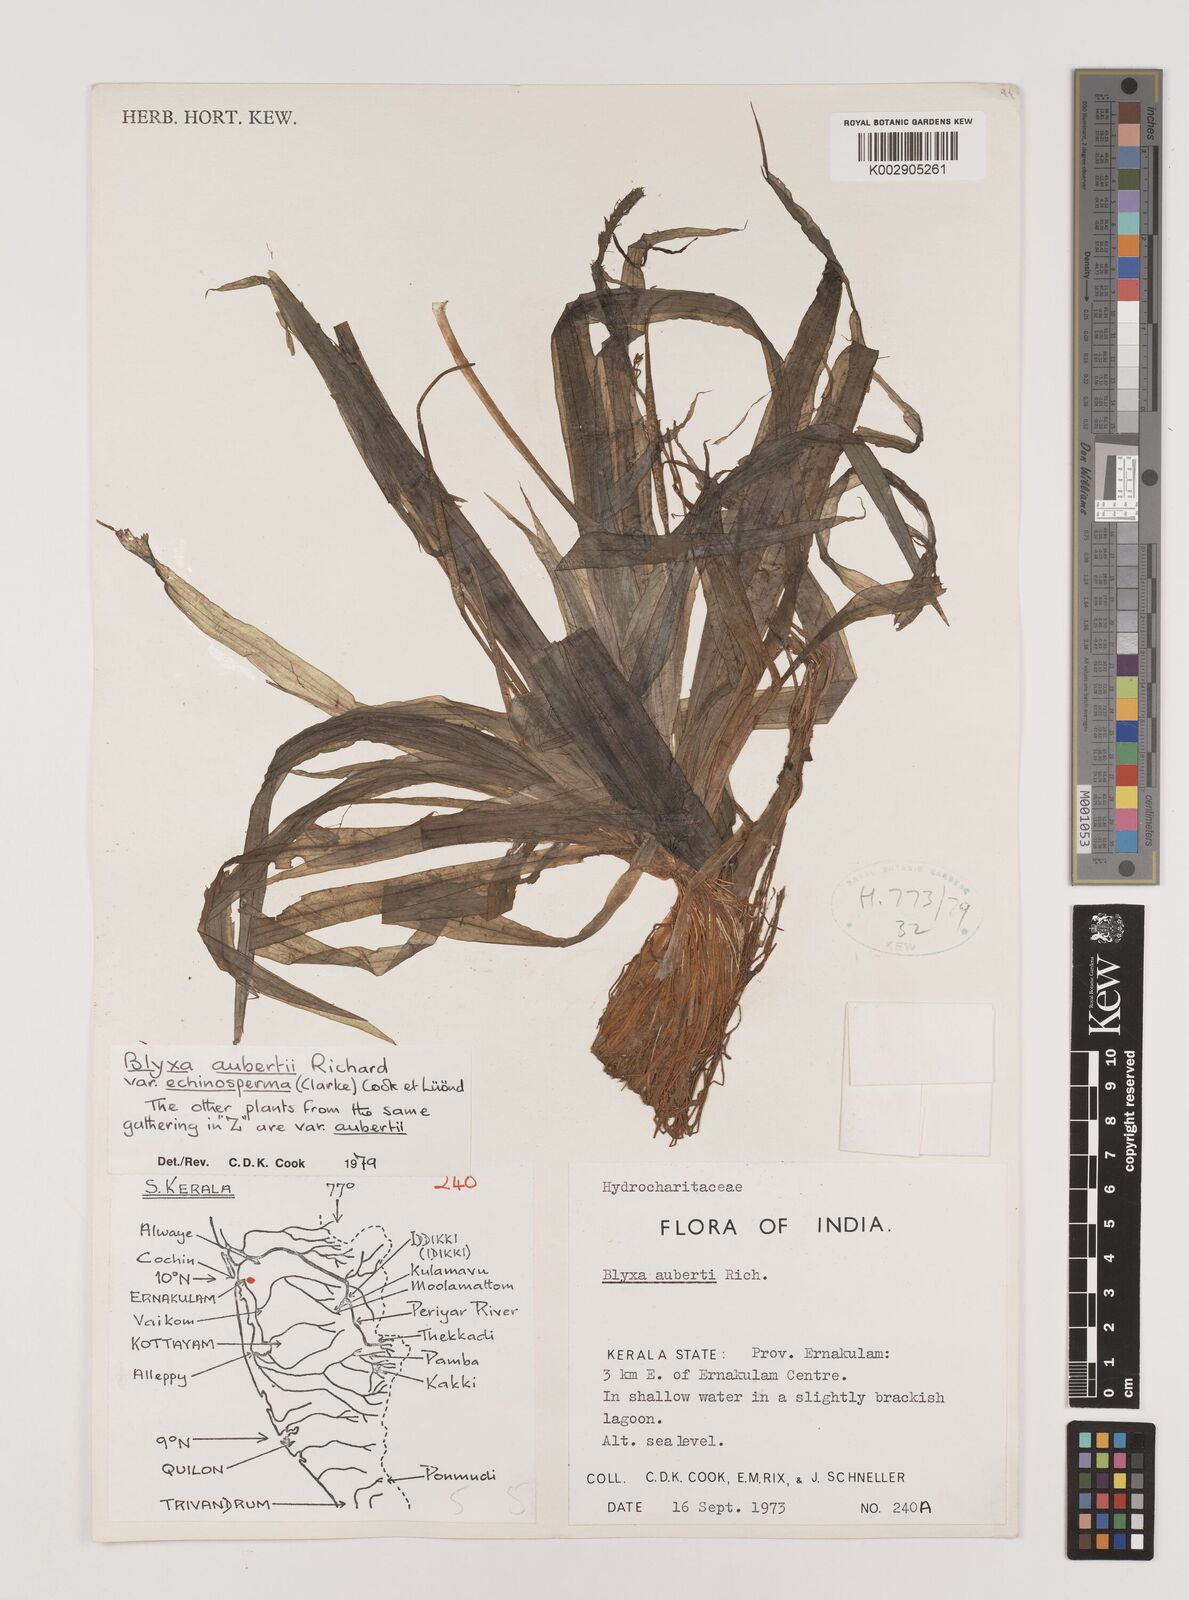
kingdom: Plantae
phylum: Tracheophyta
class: Liliopsida
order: Alismatales
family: Hydrocharitaceae
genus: Blyxa
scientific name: Blyxa echinosperma
